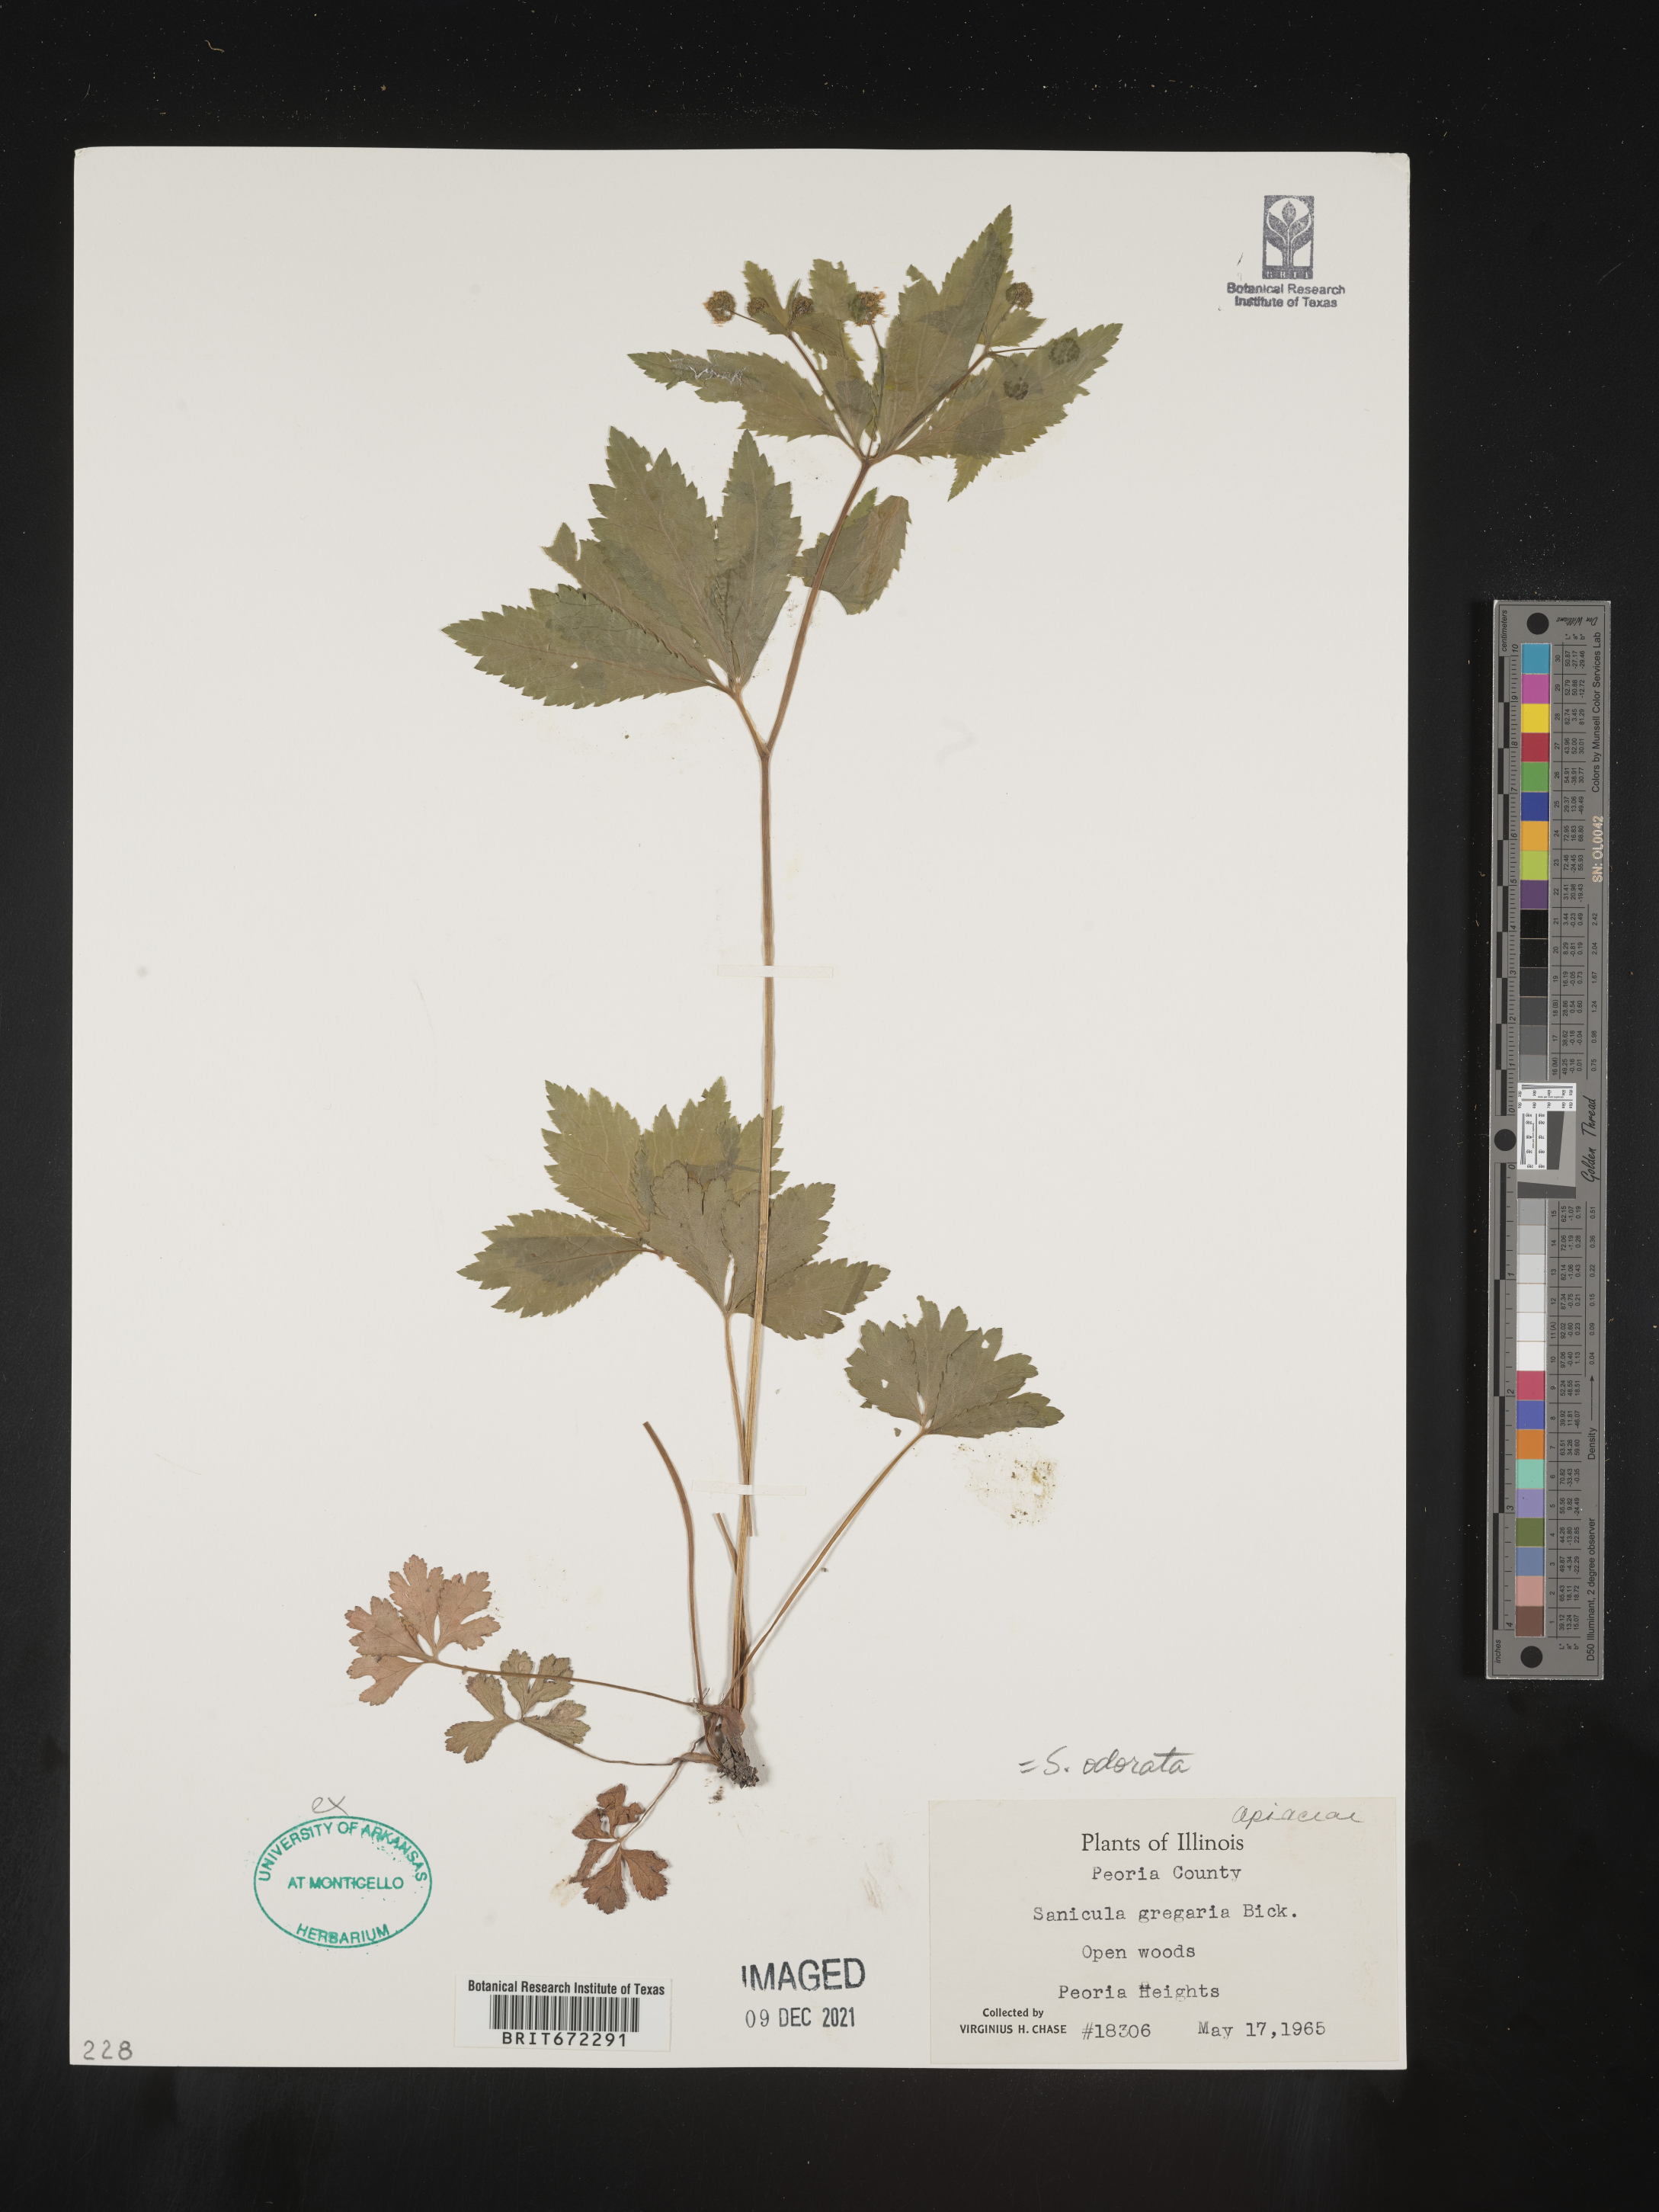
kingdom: Plantae
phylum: Tracheophyta
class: Magnoliopsida
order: Apiales
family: Apiaceae
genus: Sanicula
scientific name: Sanicula
